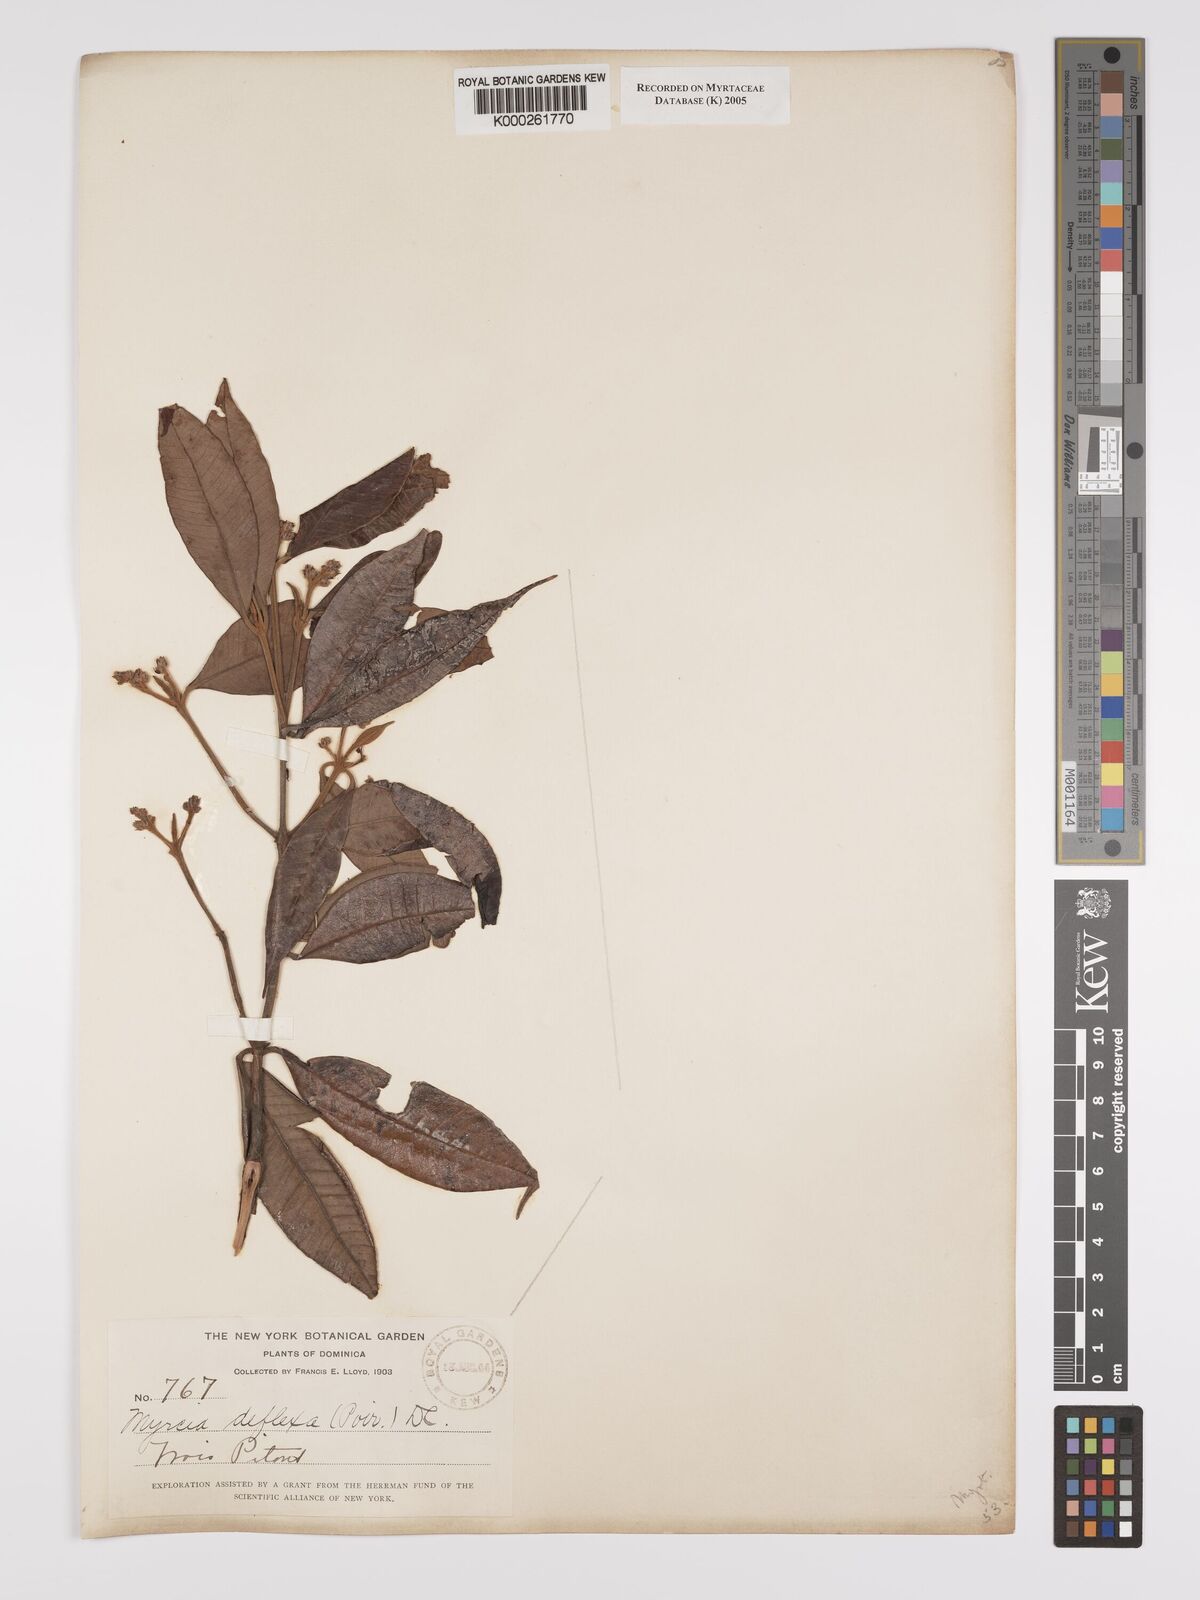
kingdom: Plantae
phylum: Tracheophyta
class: Magnoliopsida
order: Myrtales
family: Myrtaceae
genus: Myrcia
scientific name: Myrcia deflexa
